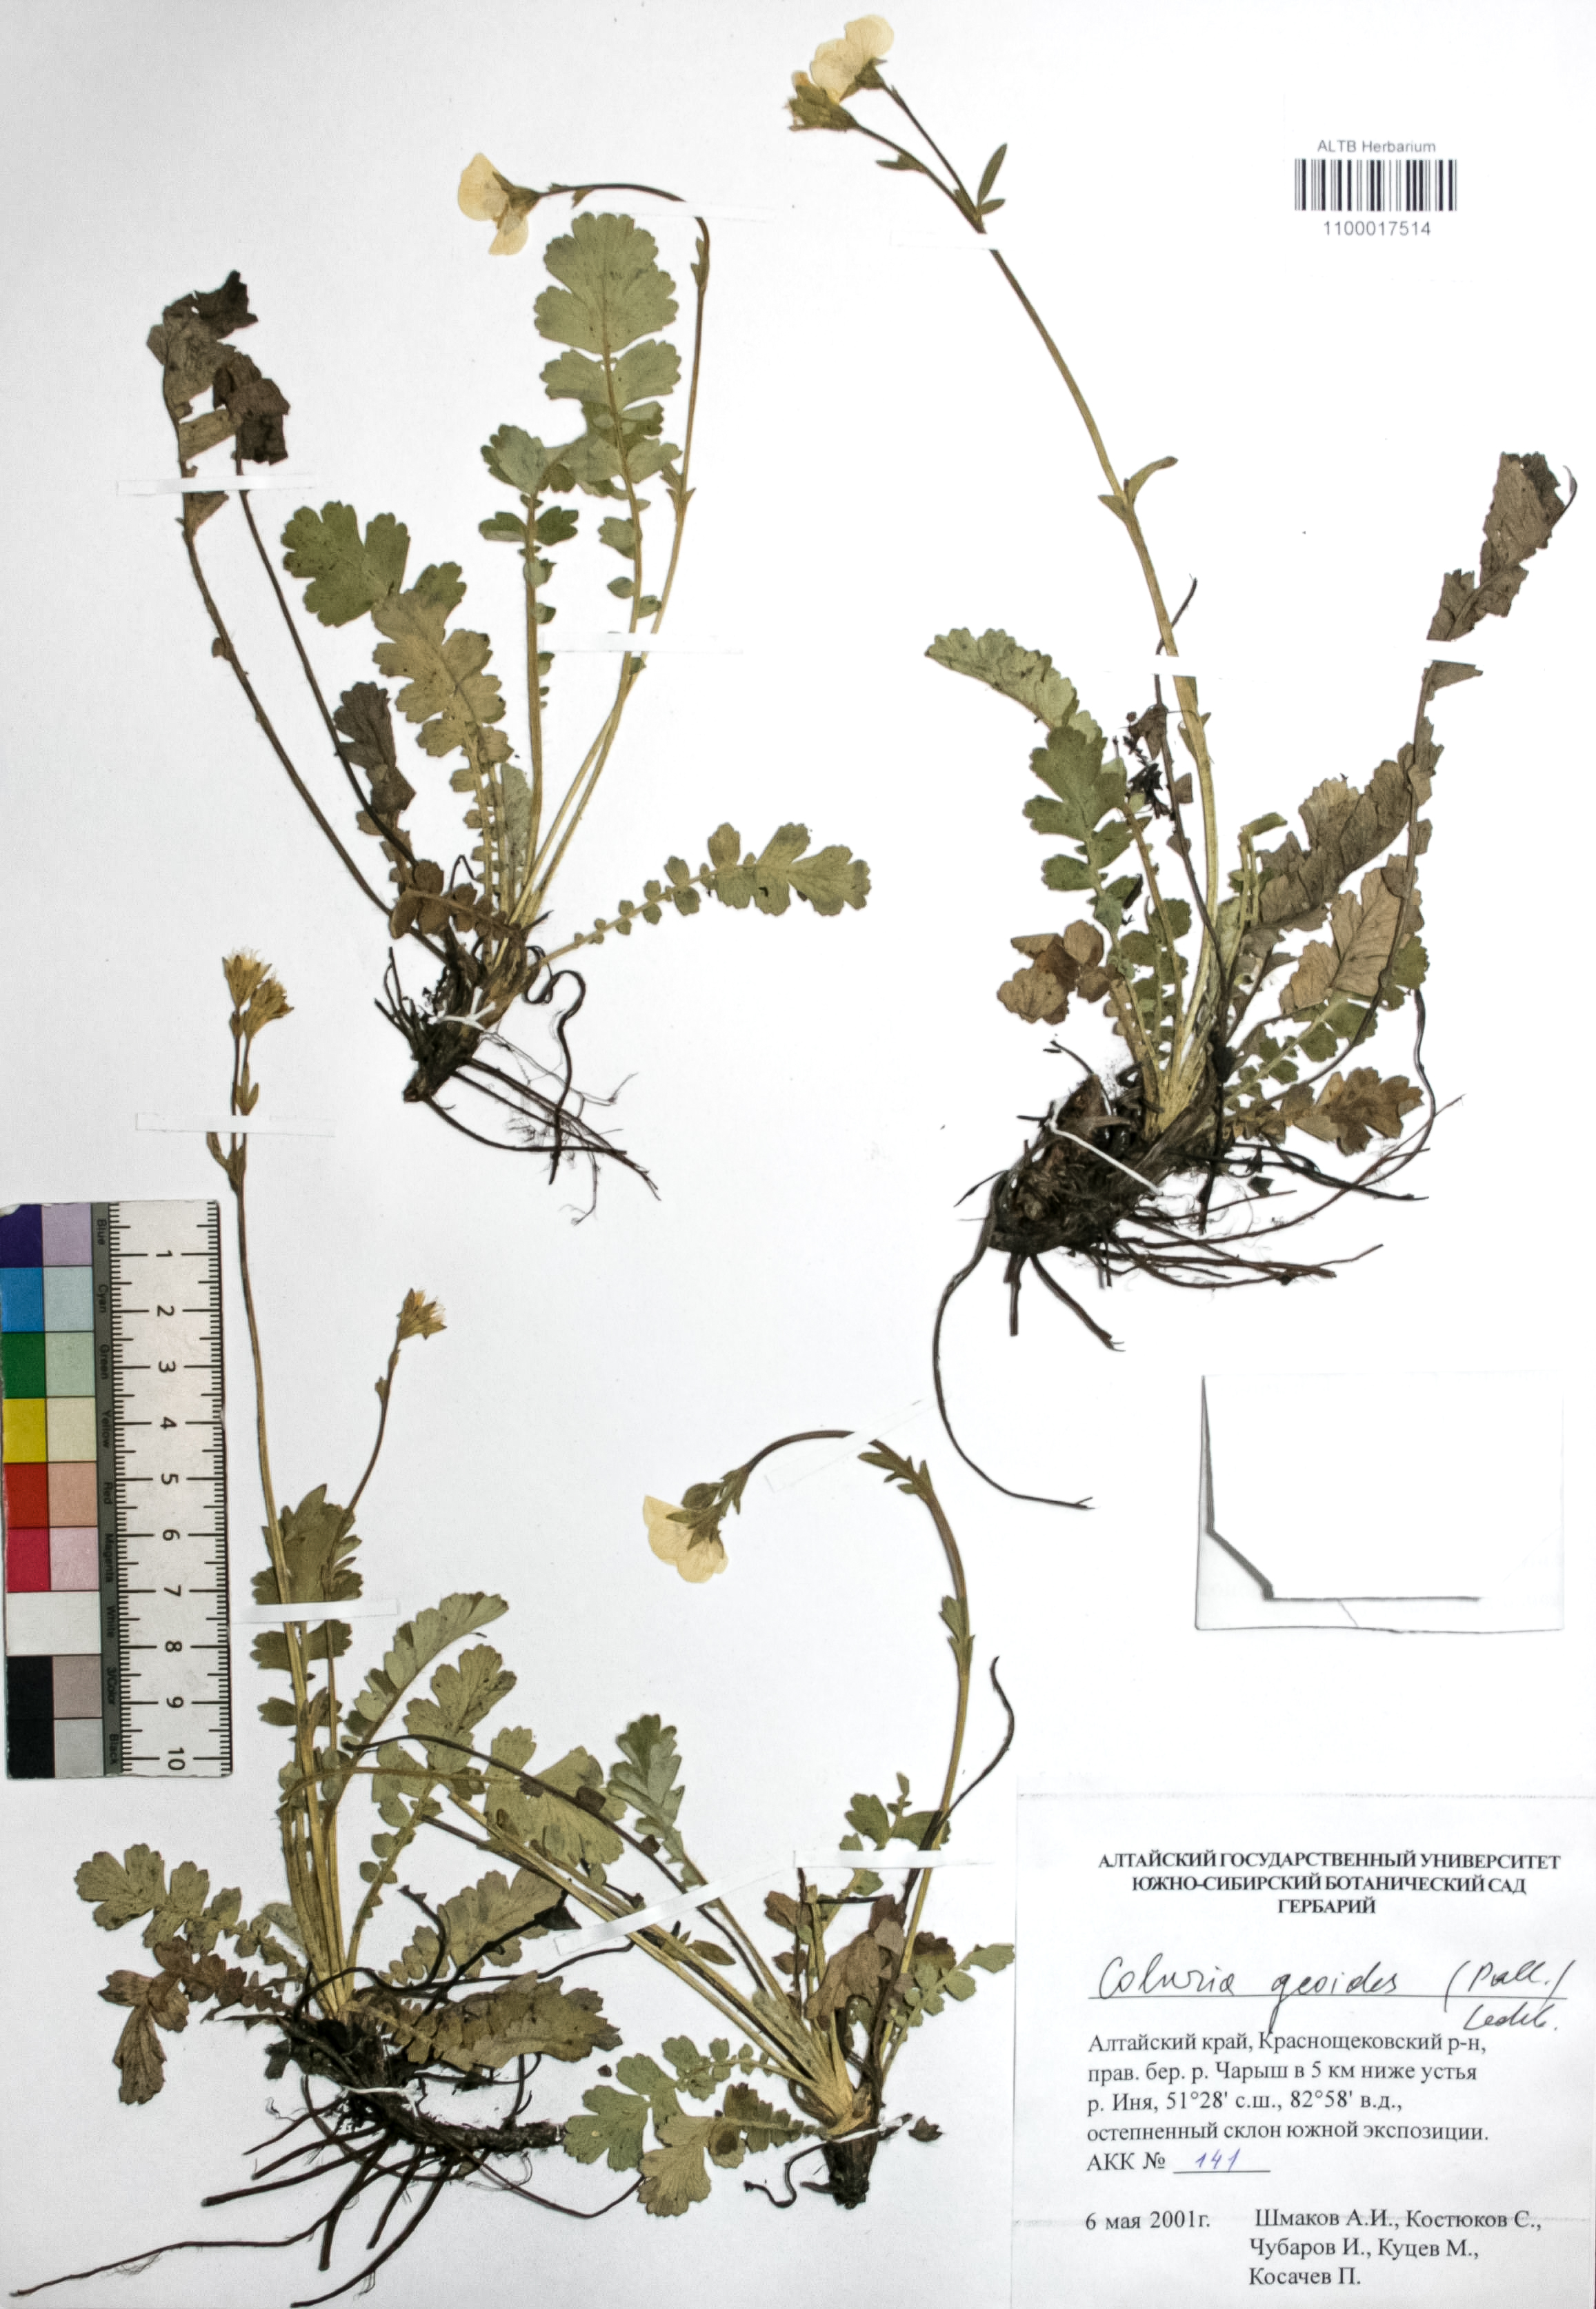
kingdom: Plantae
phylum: Tracheophyta
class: Magnoliopsida
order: Rosales
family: Rosaceae
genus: Geum
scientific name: Geum geoides
